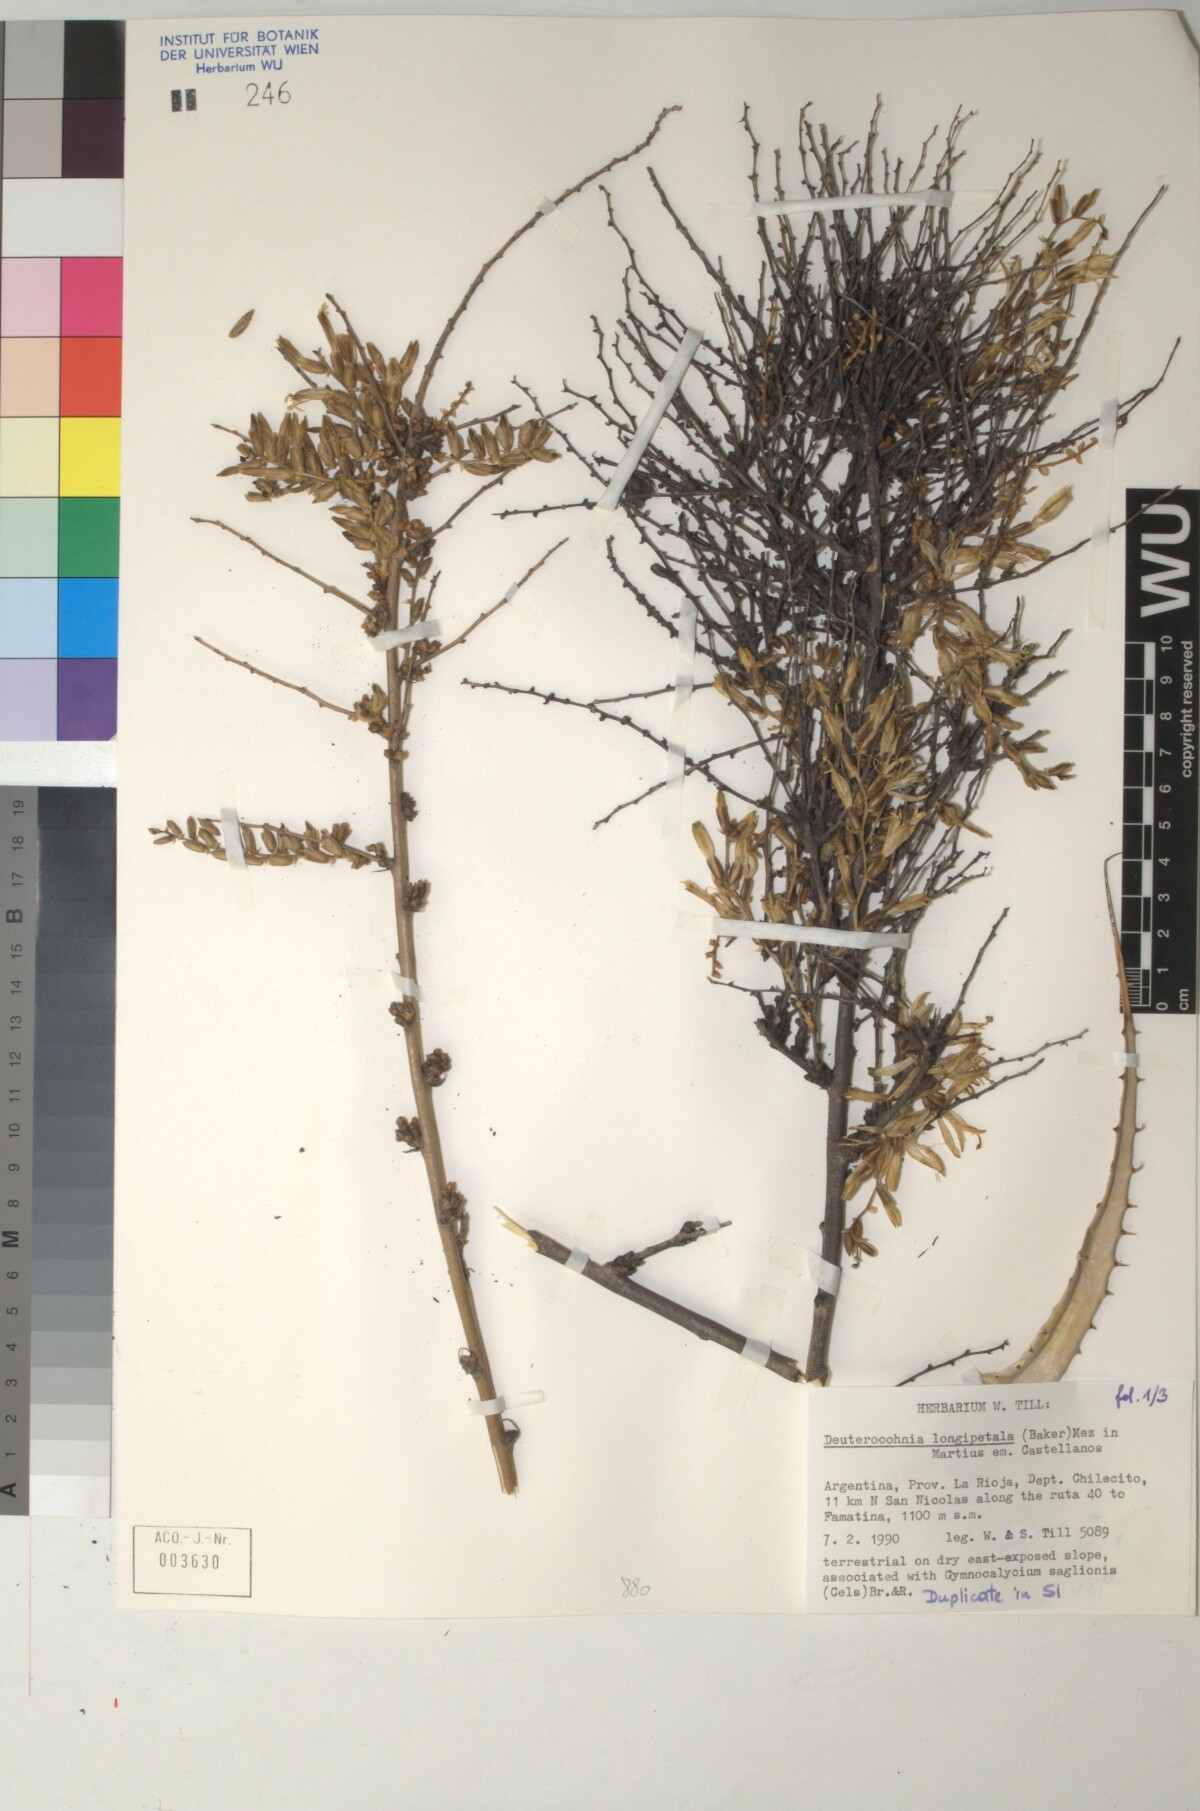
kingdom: Plantae
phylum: Tracheophyta
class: Liliopsida
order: Poales
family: Bromeliaceae
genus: Deuterocohnia
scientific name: Deuterocohnia longipetala
